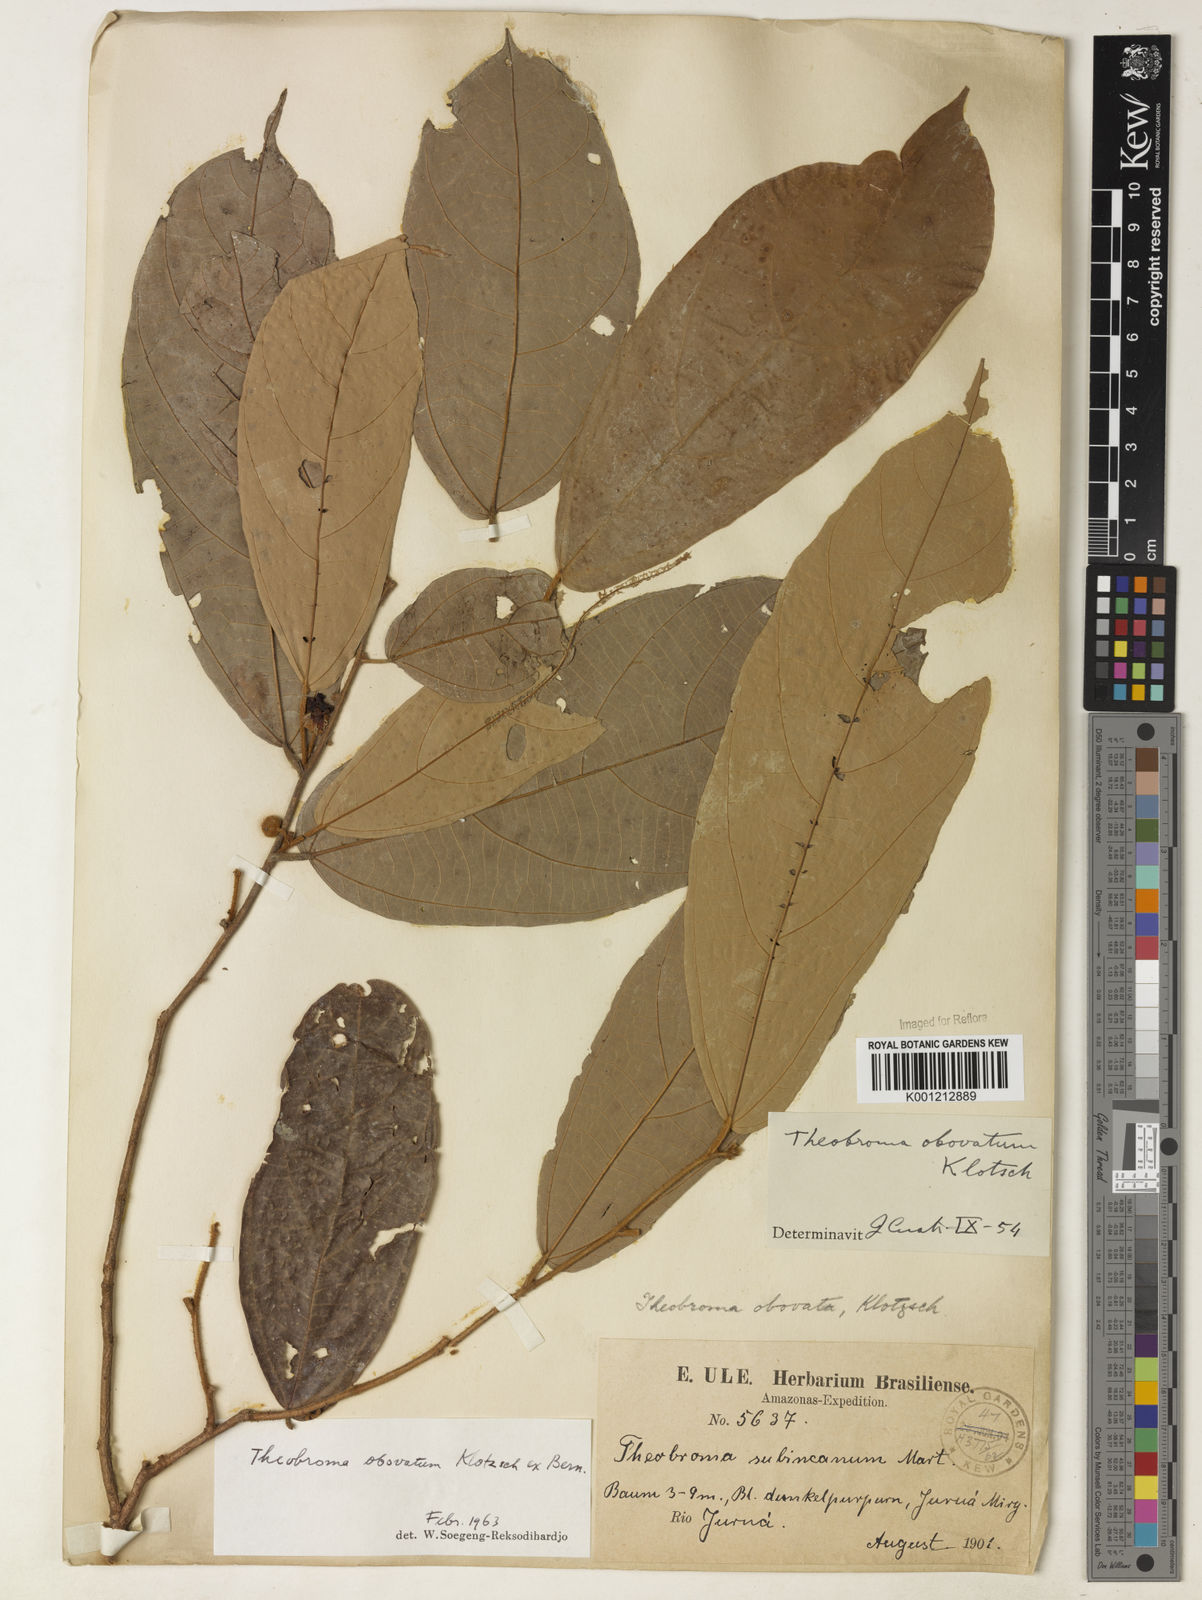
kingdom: Plantae
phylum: Tracheophyta
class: Magnoliopsida
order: Malvales
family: Malvaceae
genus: Theobroma
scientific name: Theobroma obovatum
